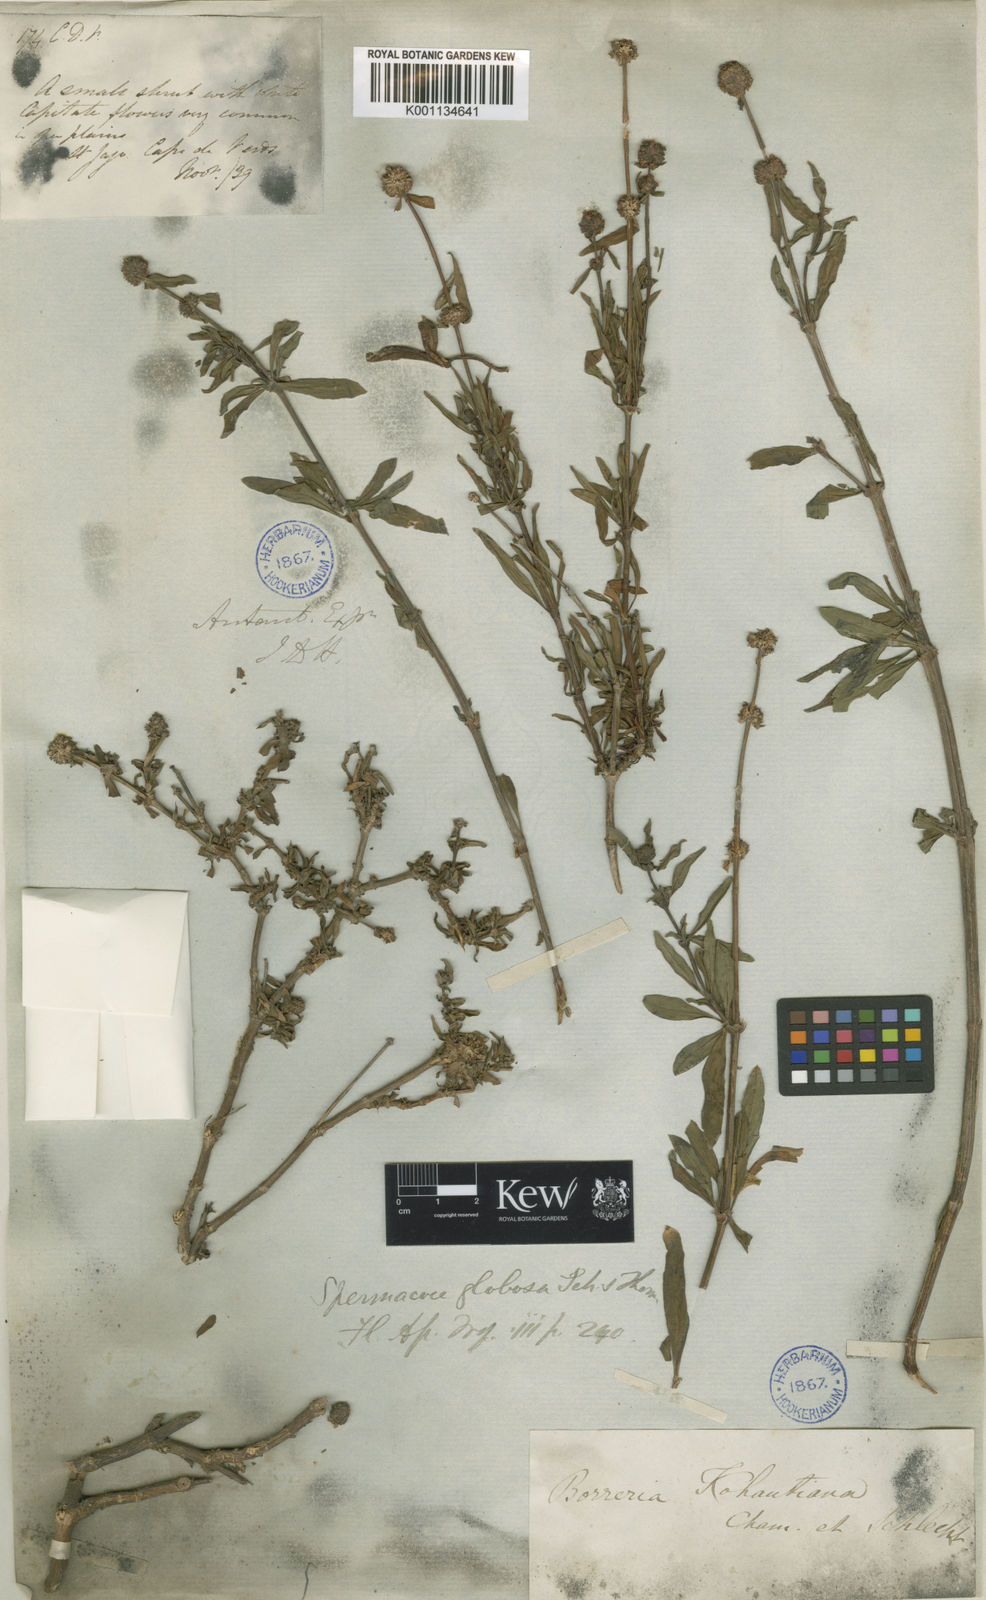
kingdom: Plantae
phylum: Tracheophyta
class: Magnoliopsida
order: Gentianales
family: Rubiaceae
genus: Spermacoce
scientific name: Spermacoce verticillata
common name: Shrubby false buttonweed
